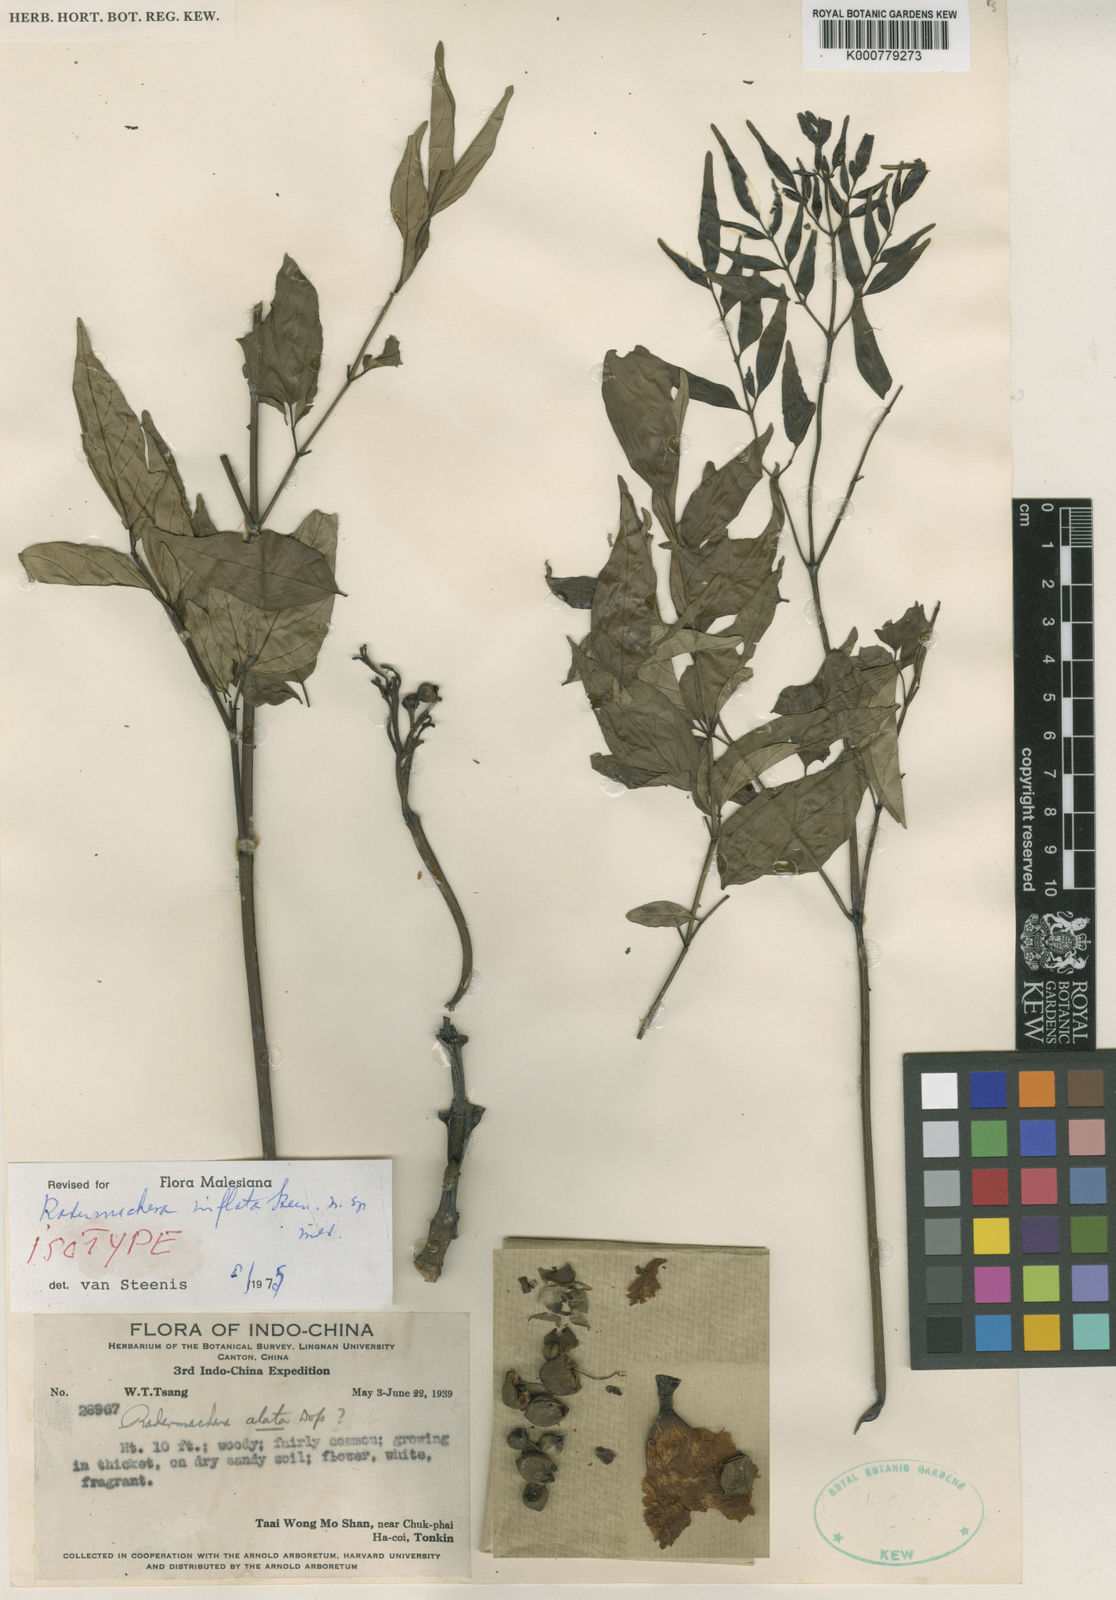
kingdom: Plantae
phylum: Tracheophyta
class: Magnoliopsida
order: Lamiales
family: Bignoniaceae
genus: Radermachera
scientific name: Radermachera inflata
